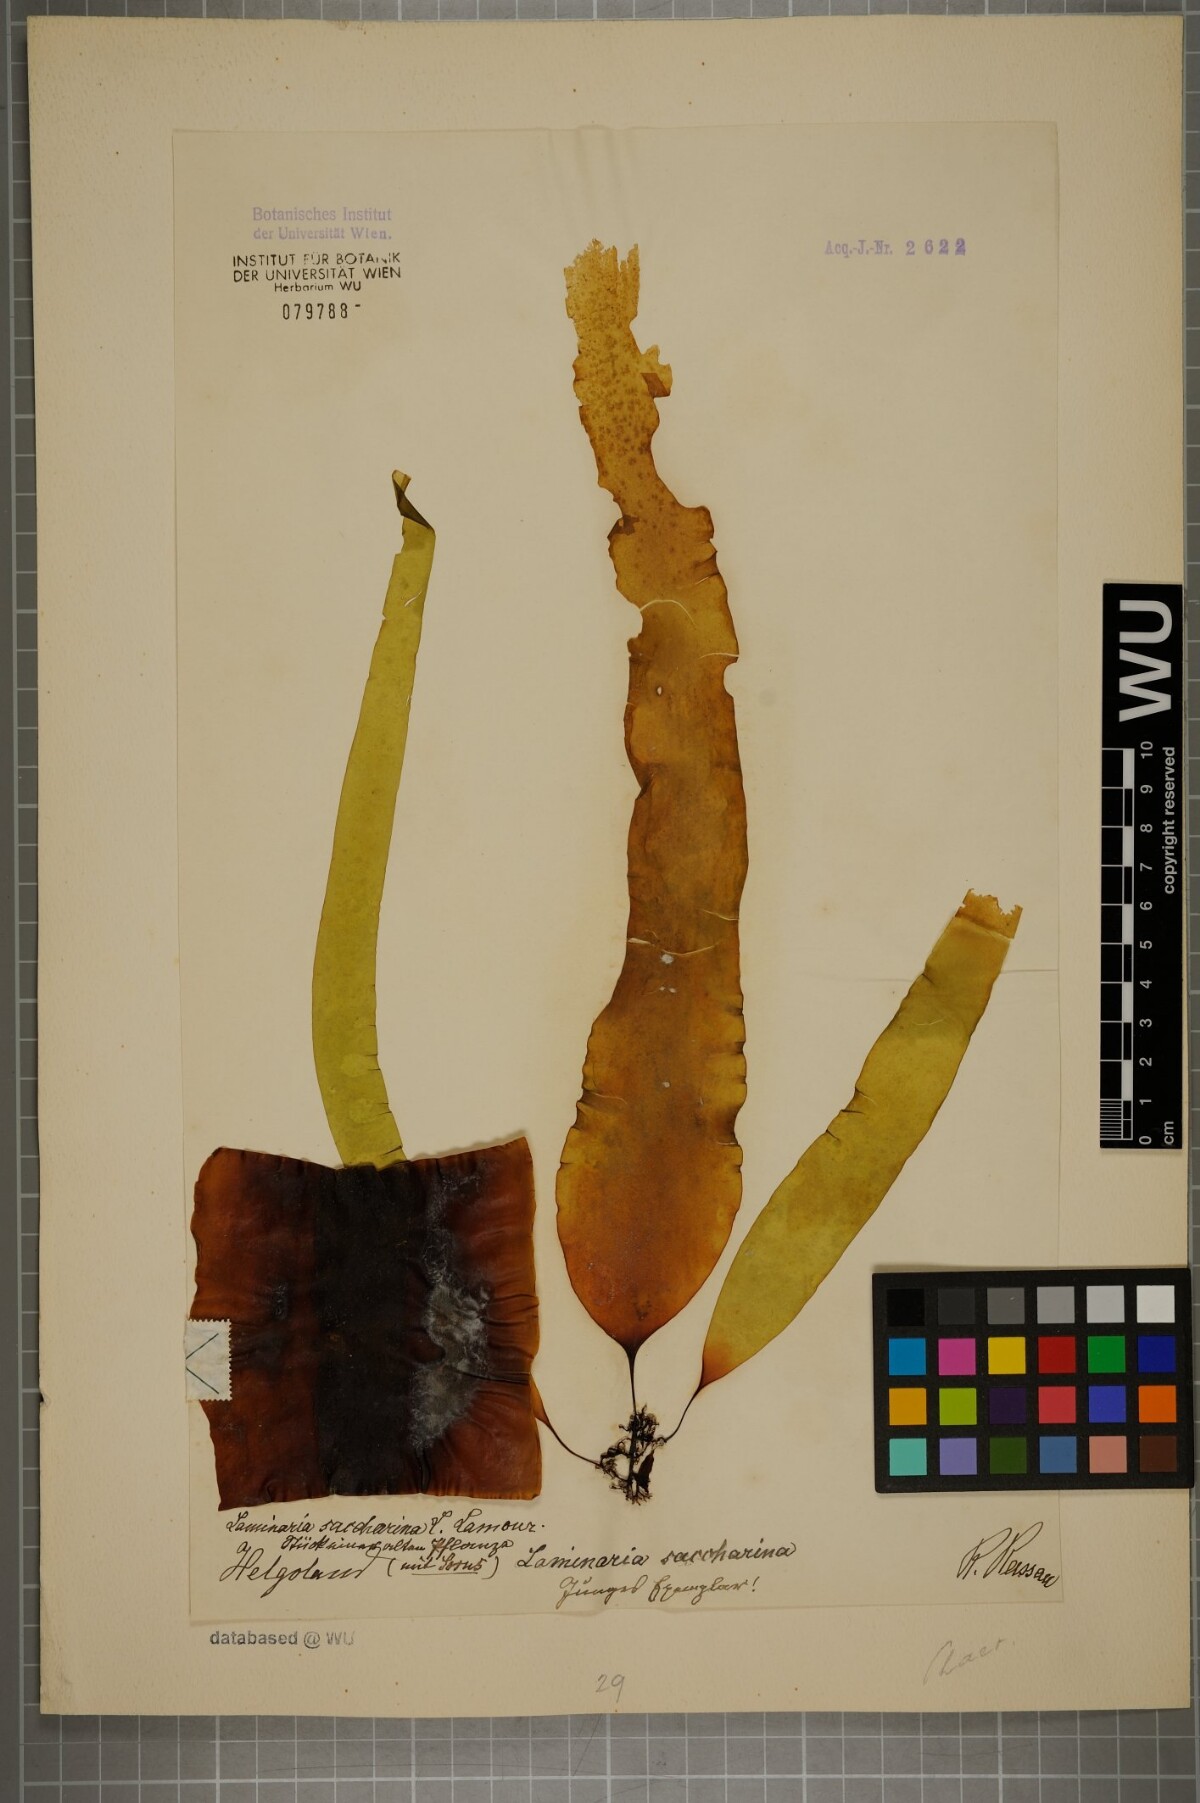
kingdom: Chromista
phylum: Ochrophyta
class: Phaeophyceae
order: Laminariales
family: Laminariaceae
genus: Saccharina
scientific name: Saccharina latissima
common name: Poor man's weather glass
